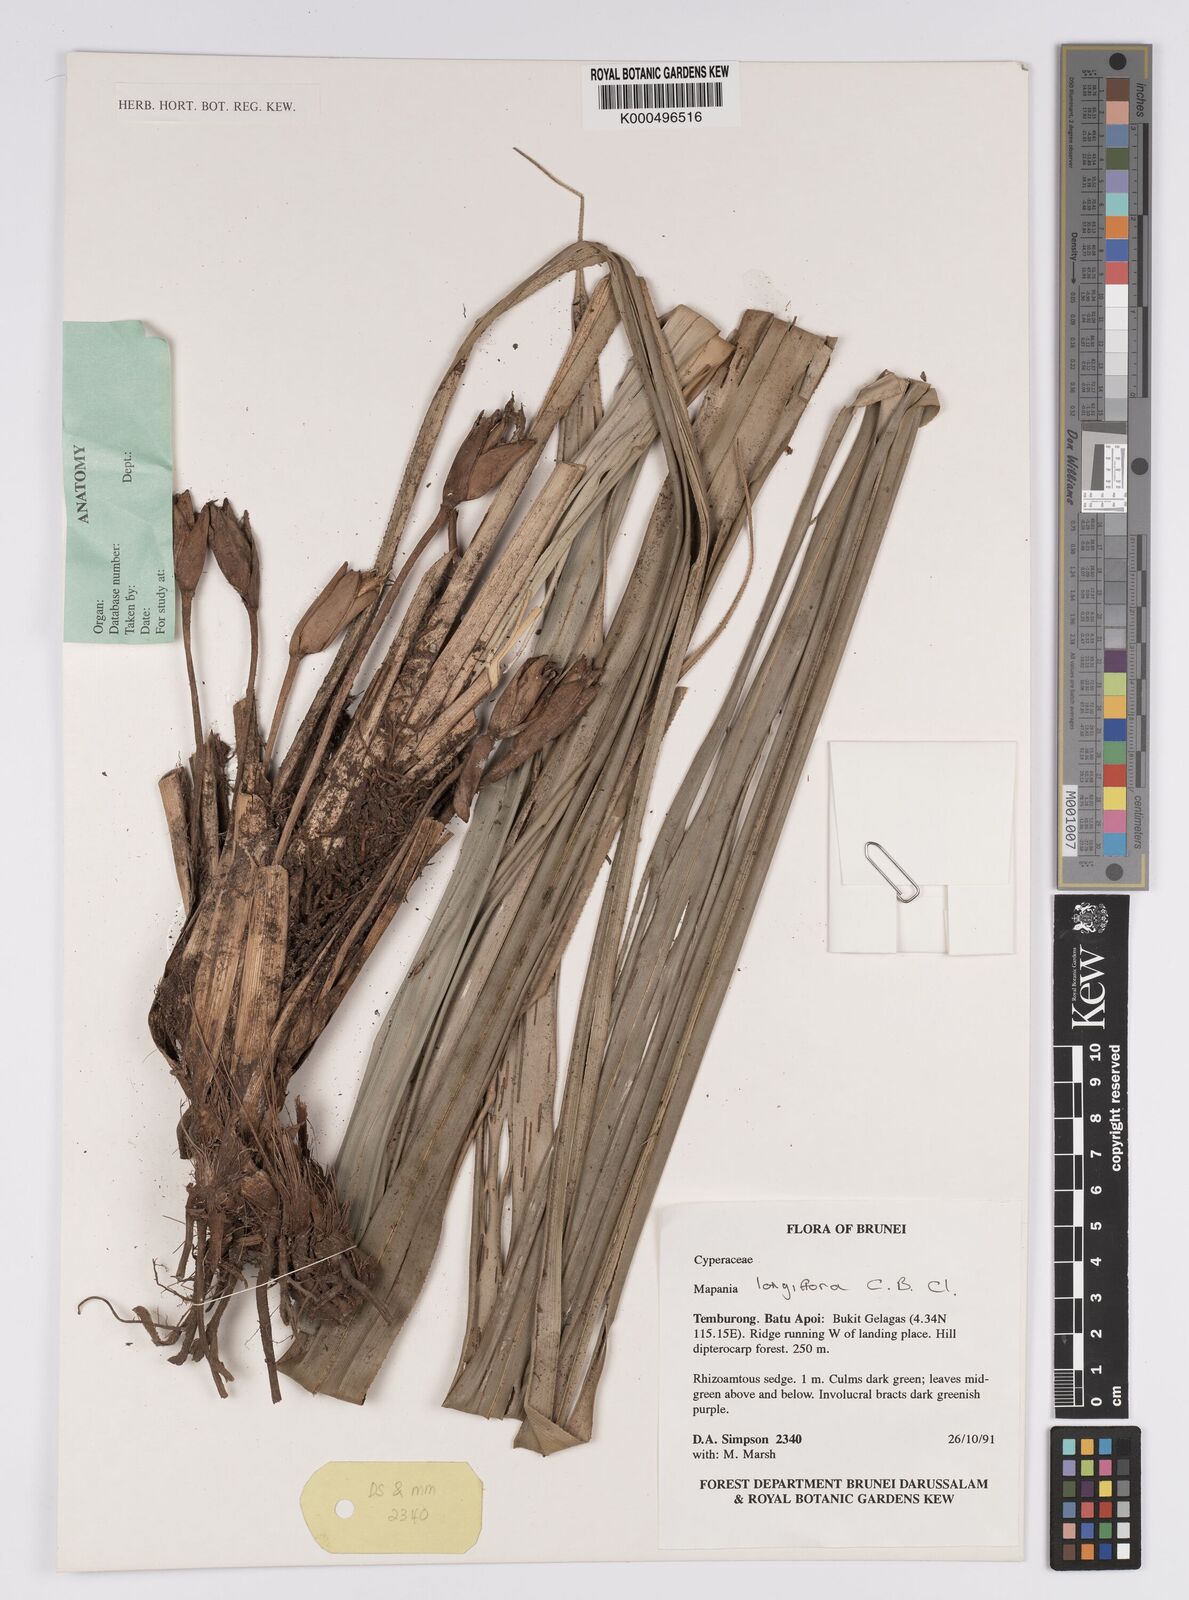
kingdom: Plantae
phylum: Tracheophyta
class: Liliopsida
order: Poales
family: Cyperaceae
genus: Mapania
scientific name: Mapania longiflora
